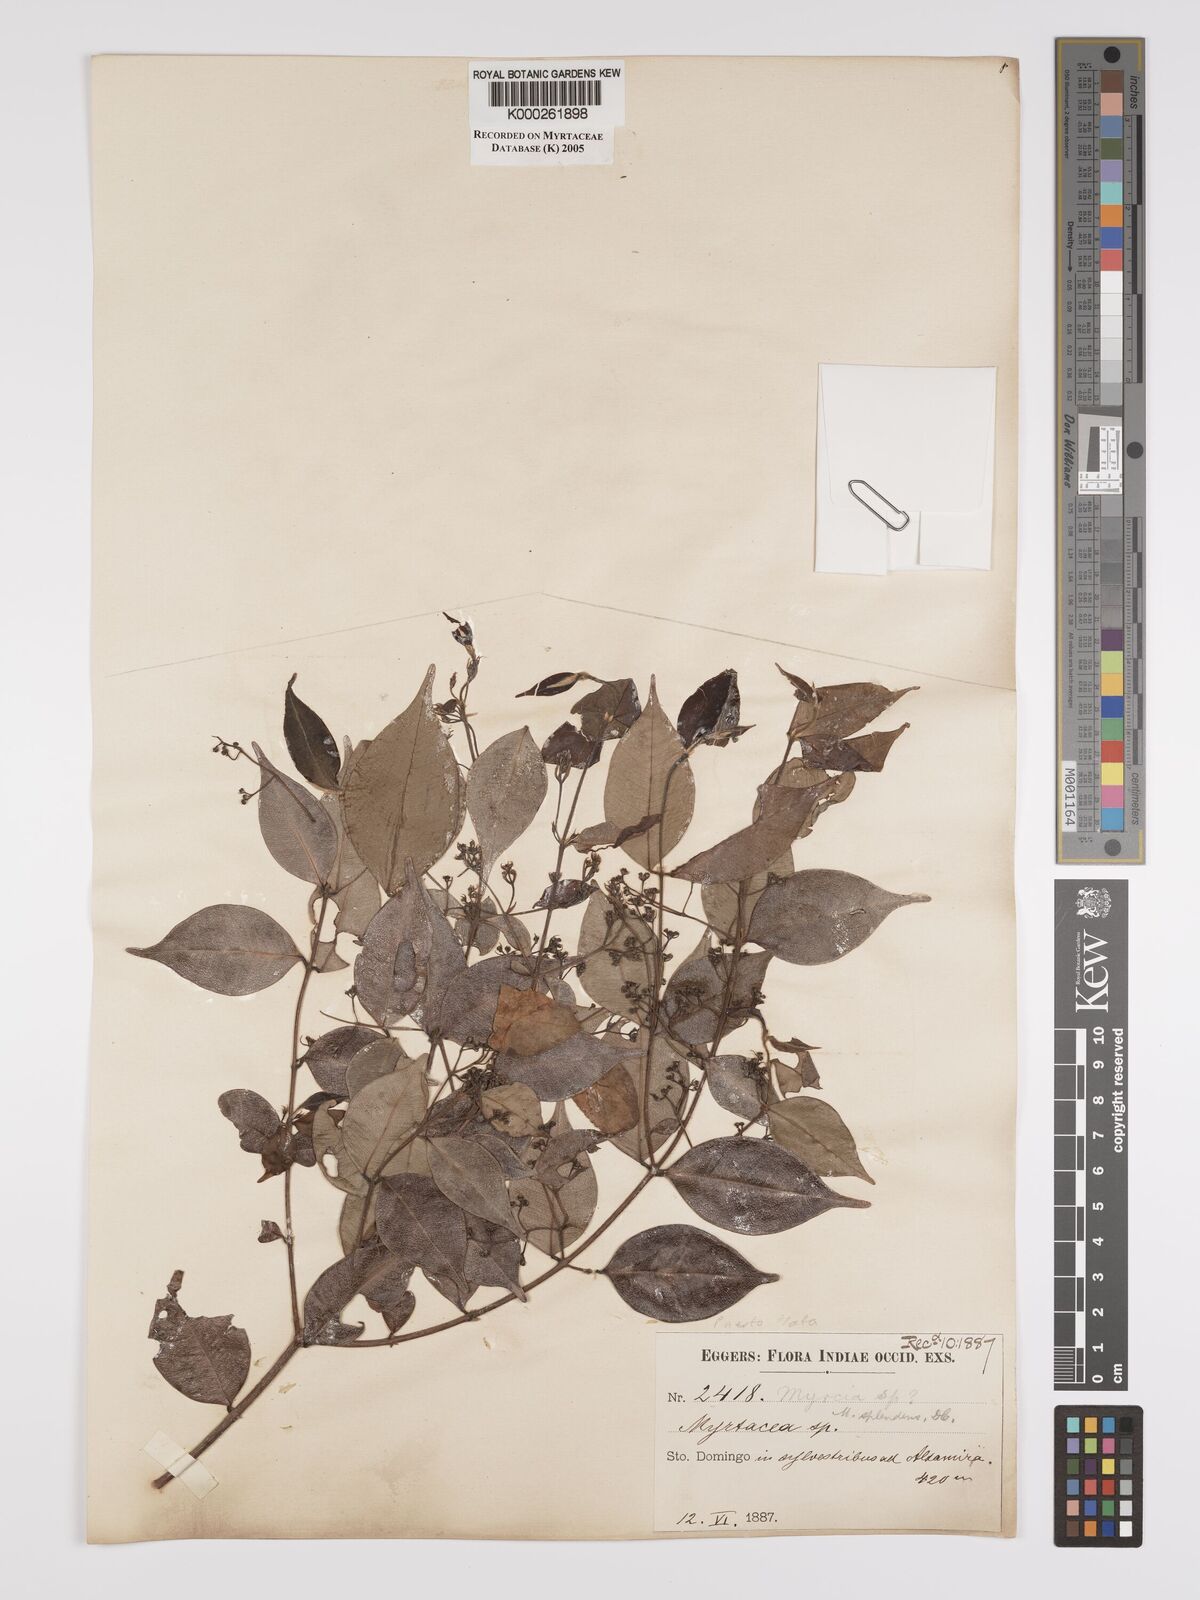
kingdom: Plantae
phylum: Tracheophyta
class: Magnoliopsida
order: Myrtales
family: Myrtaceae
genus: Myrcia
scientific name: Myrcia splendens
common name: Surinam cherry
